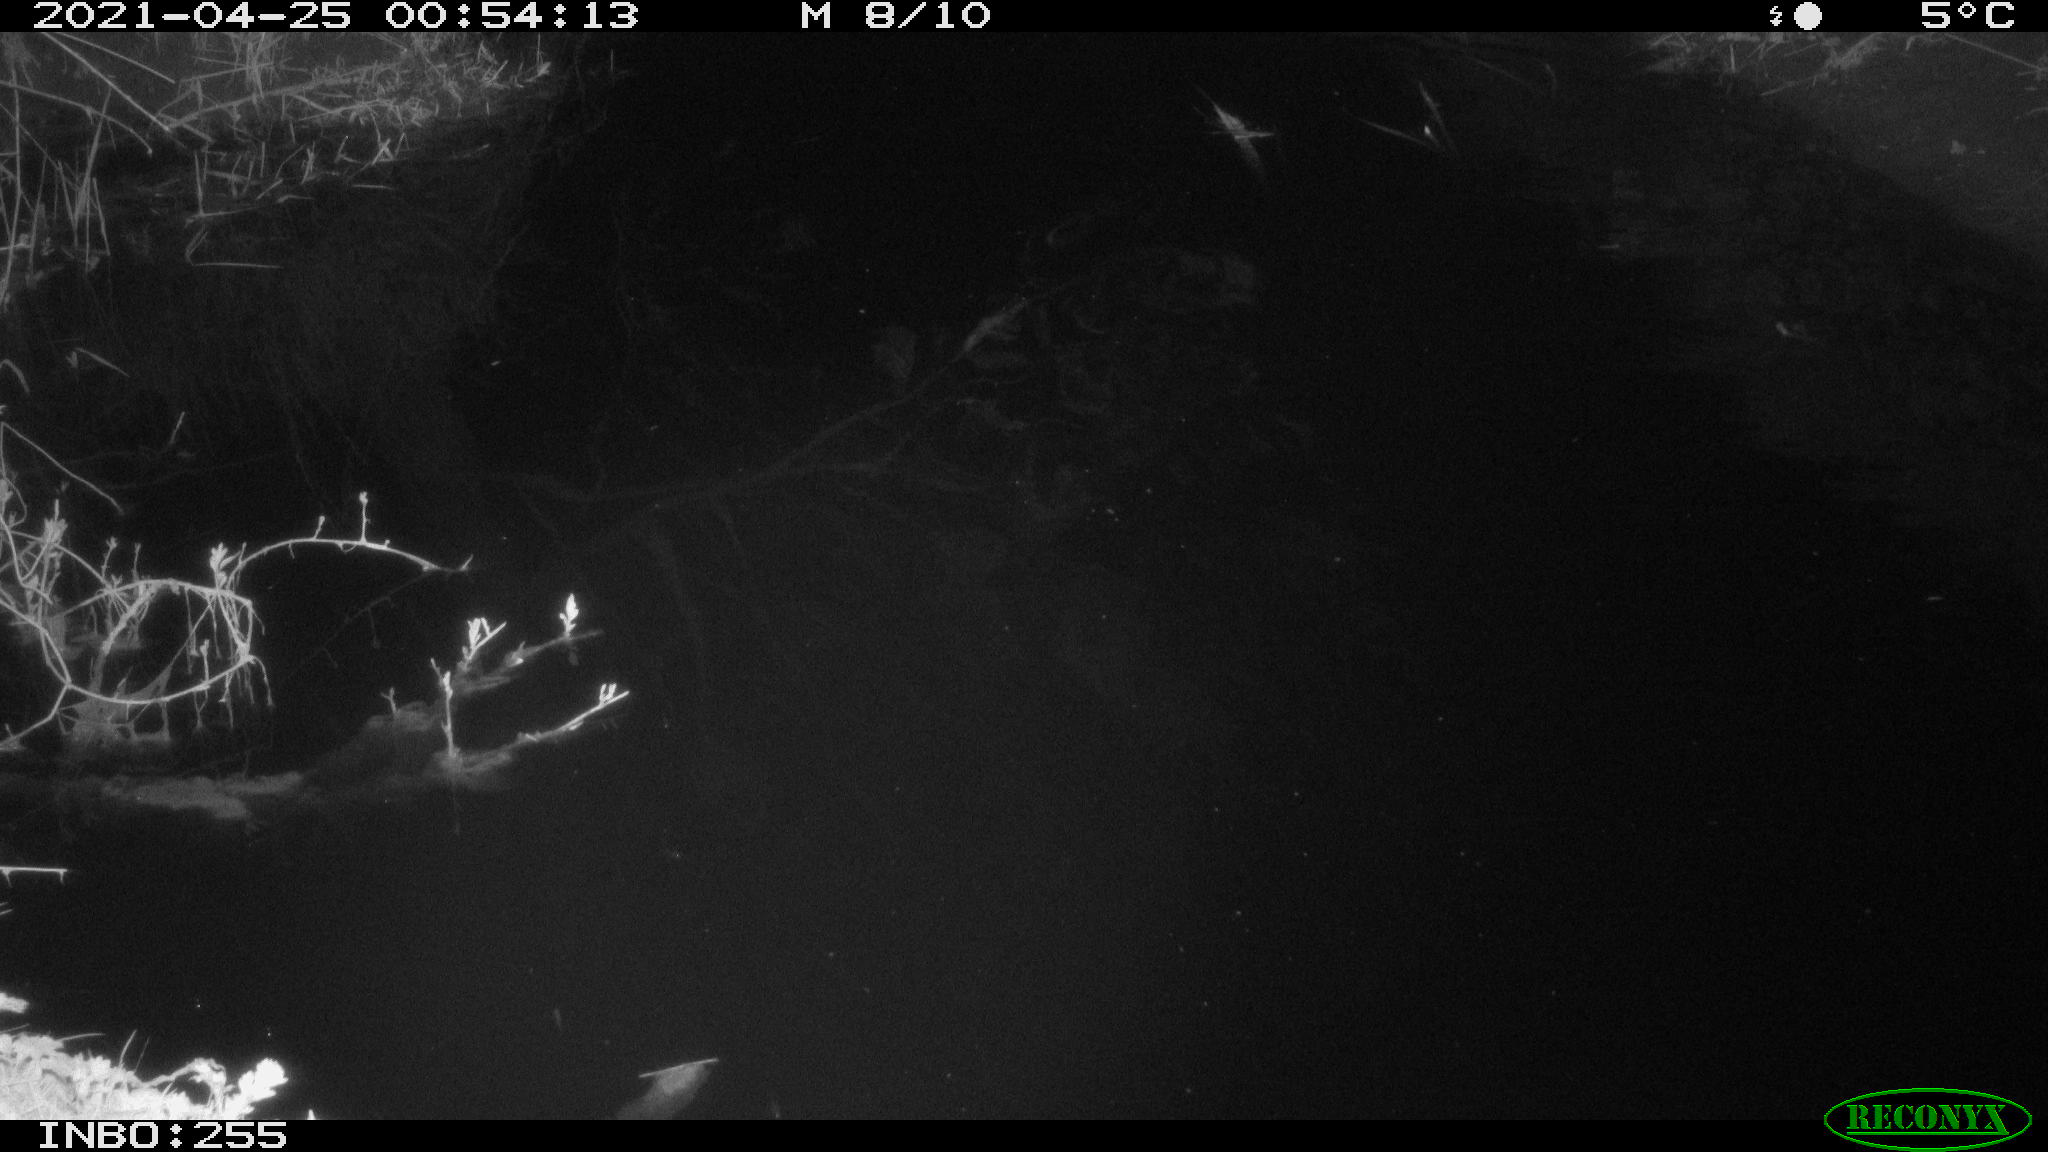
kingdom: Animalia
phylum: Chordata
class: Aves
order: Anseriformes
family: Anatidae
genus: Anas
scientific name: Anas platyrhynchos
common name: Mallard
